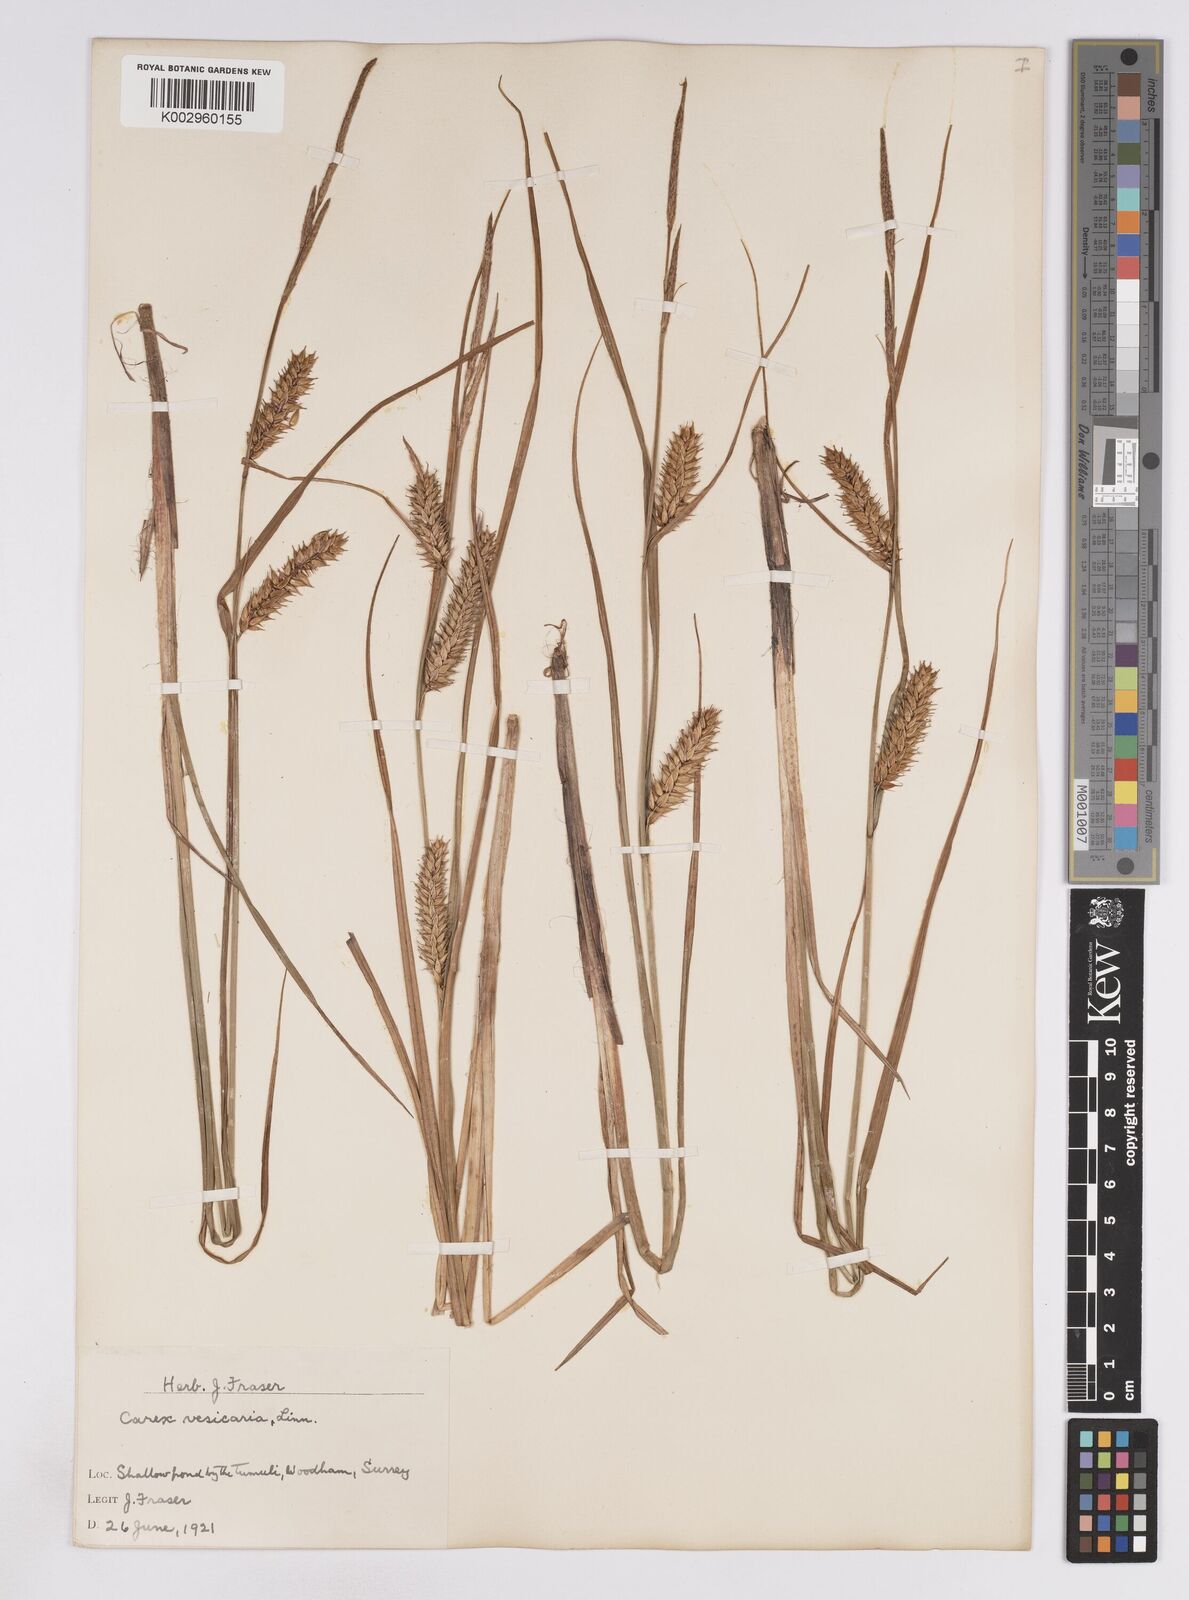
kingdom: Plantae
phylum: Tracheophyta
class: Liliopsida
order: Poales
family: Cyperaceae
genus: Carex
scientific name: Carex vesicaria
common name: Bladder-sedge
